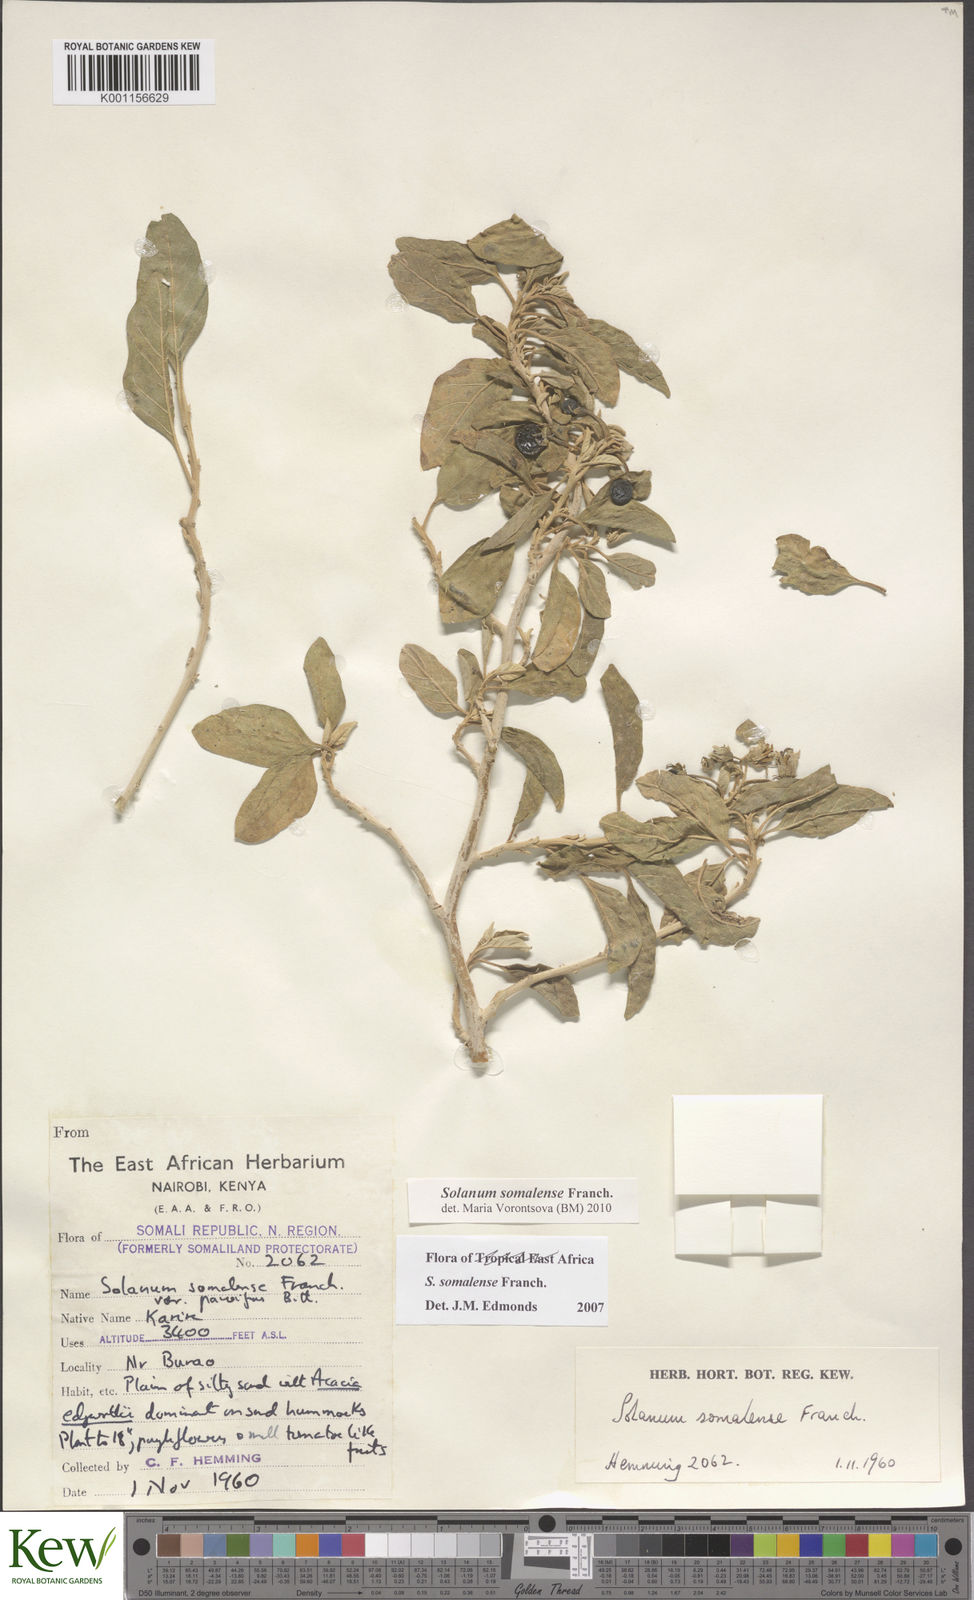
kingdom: Plantae
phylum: Tracheophyta
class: Magnoliopsida
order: Solanales
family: Solanaceae
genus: Solanum
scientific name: Solanum somalense
